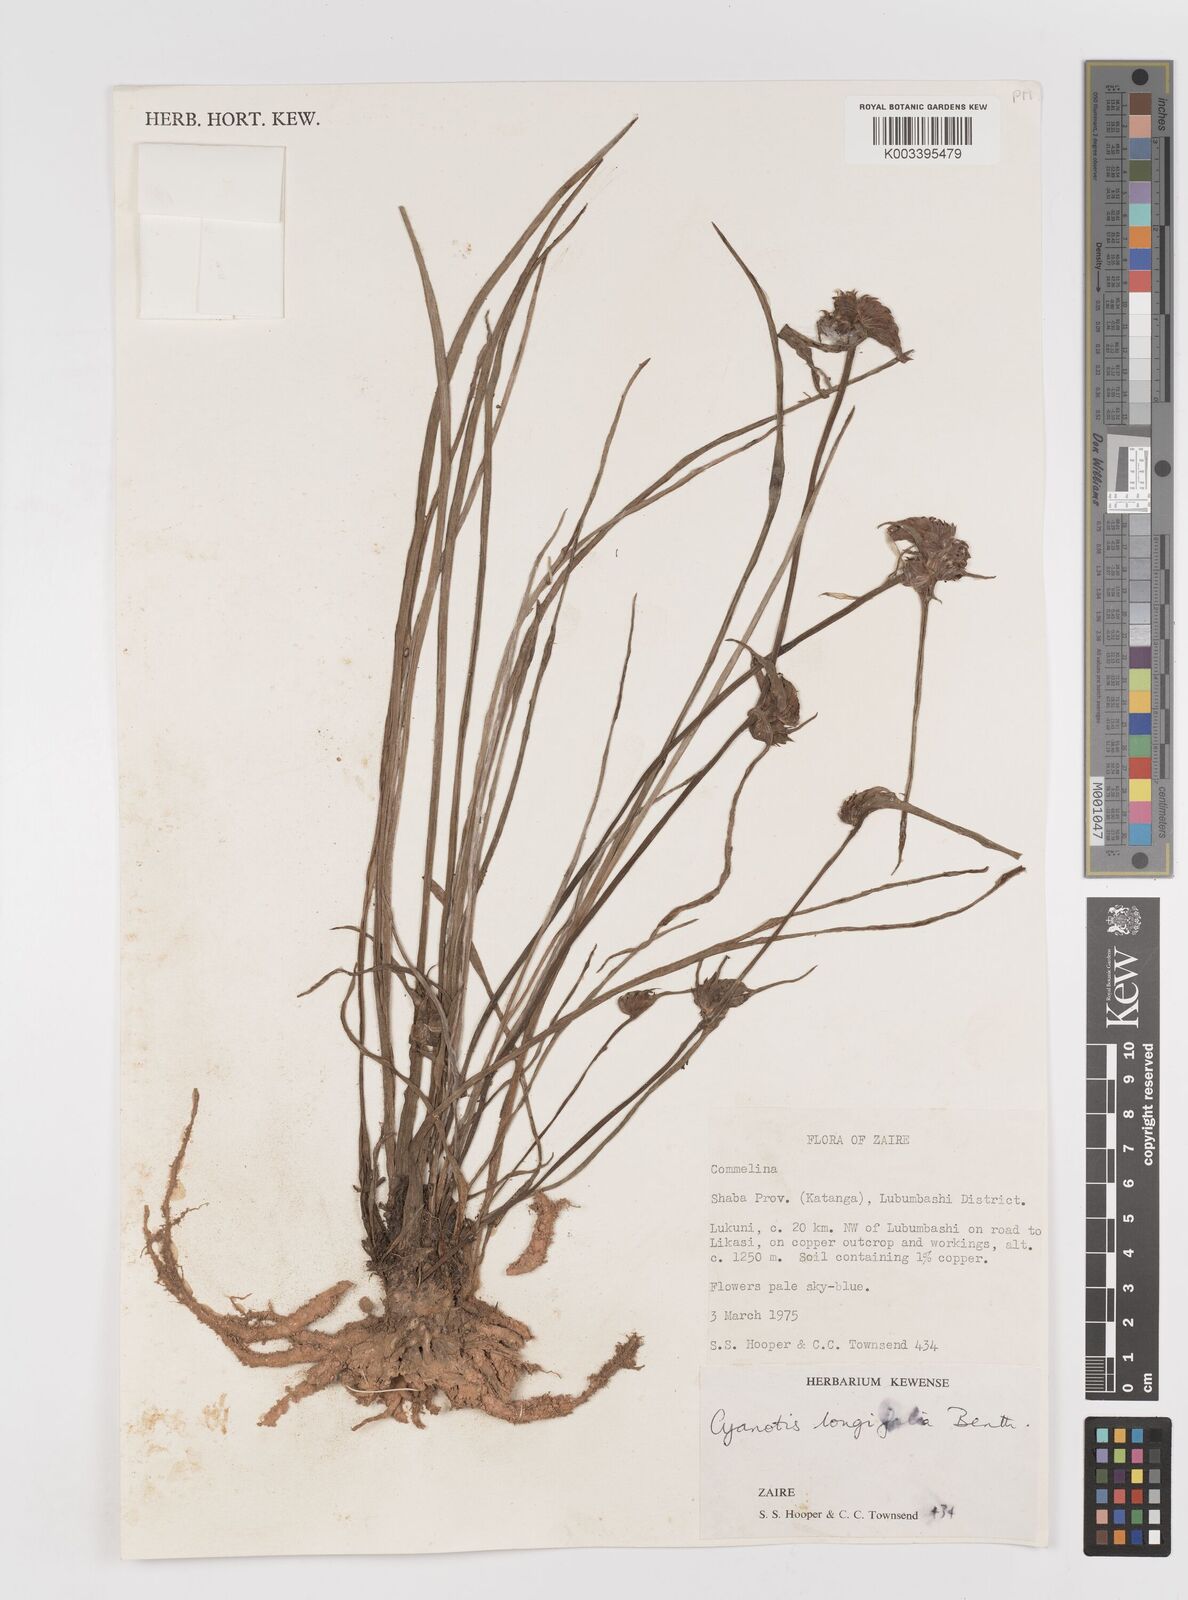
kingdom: Plantae
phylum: Tracheophyta
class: Liliopsida
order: Commelinales
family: Commelinaceae
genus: Cyanotis
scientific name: Cyanotis longifolia
